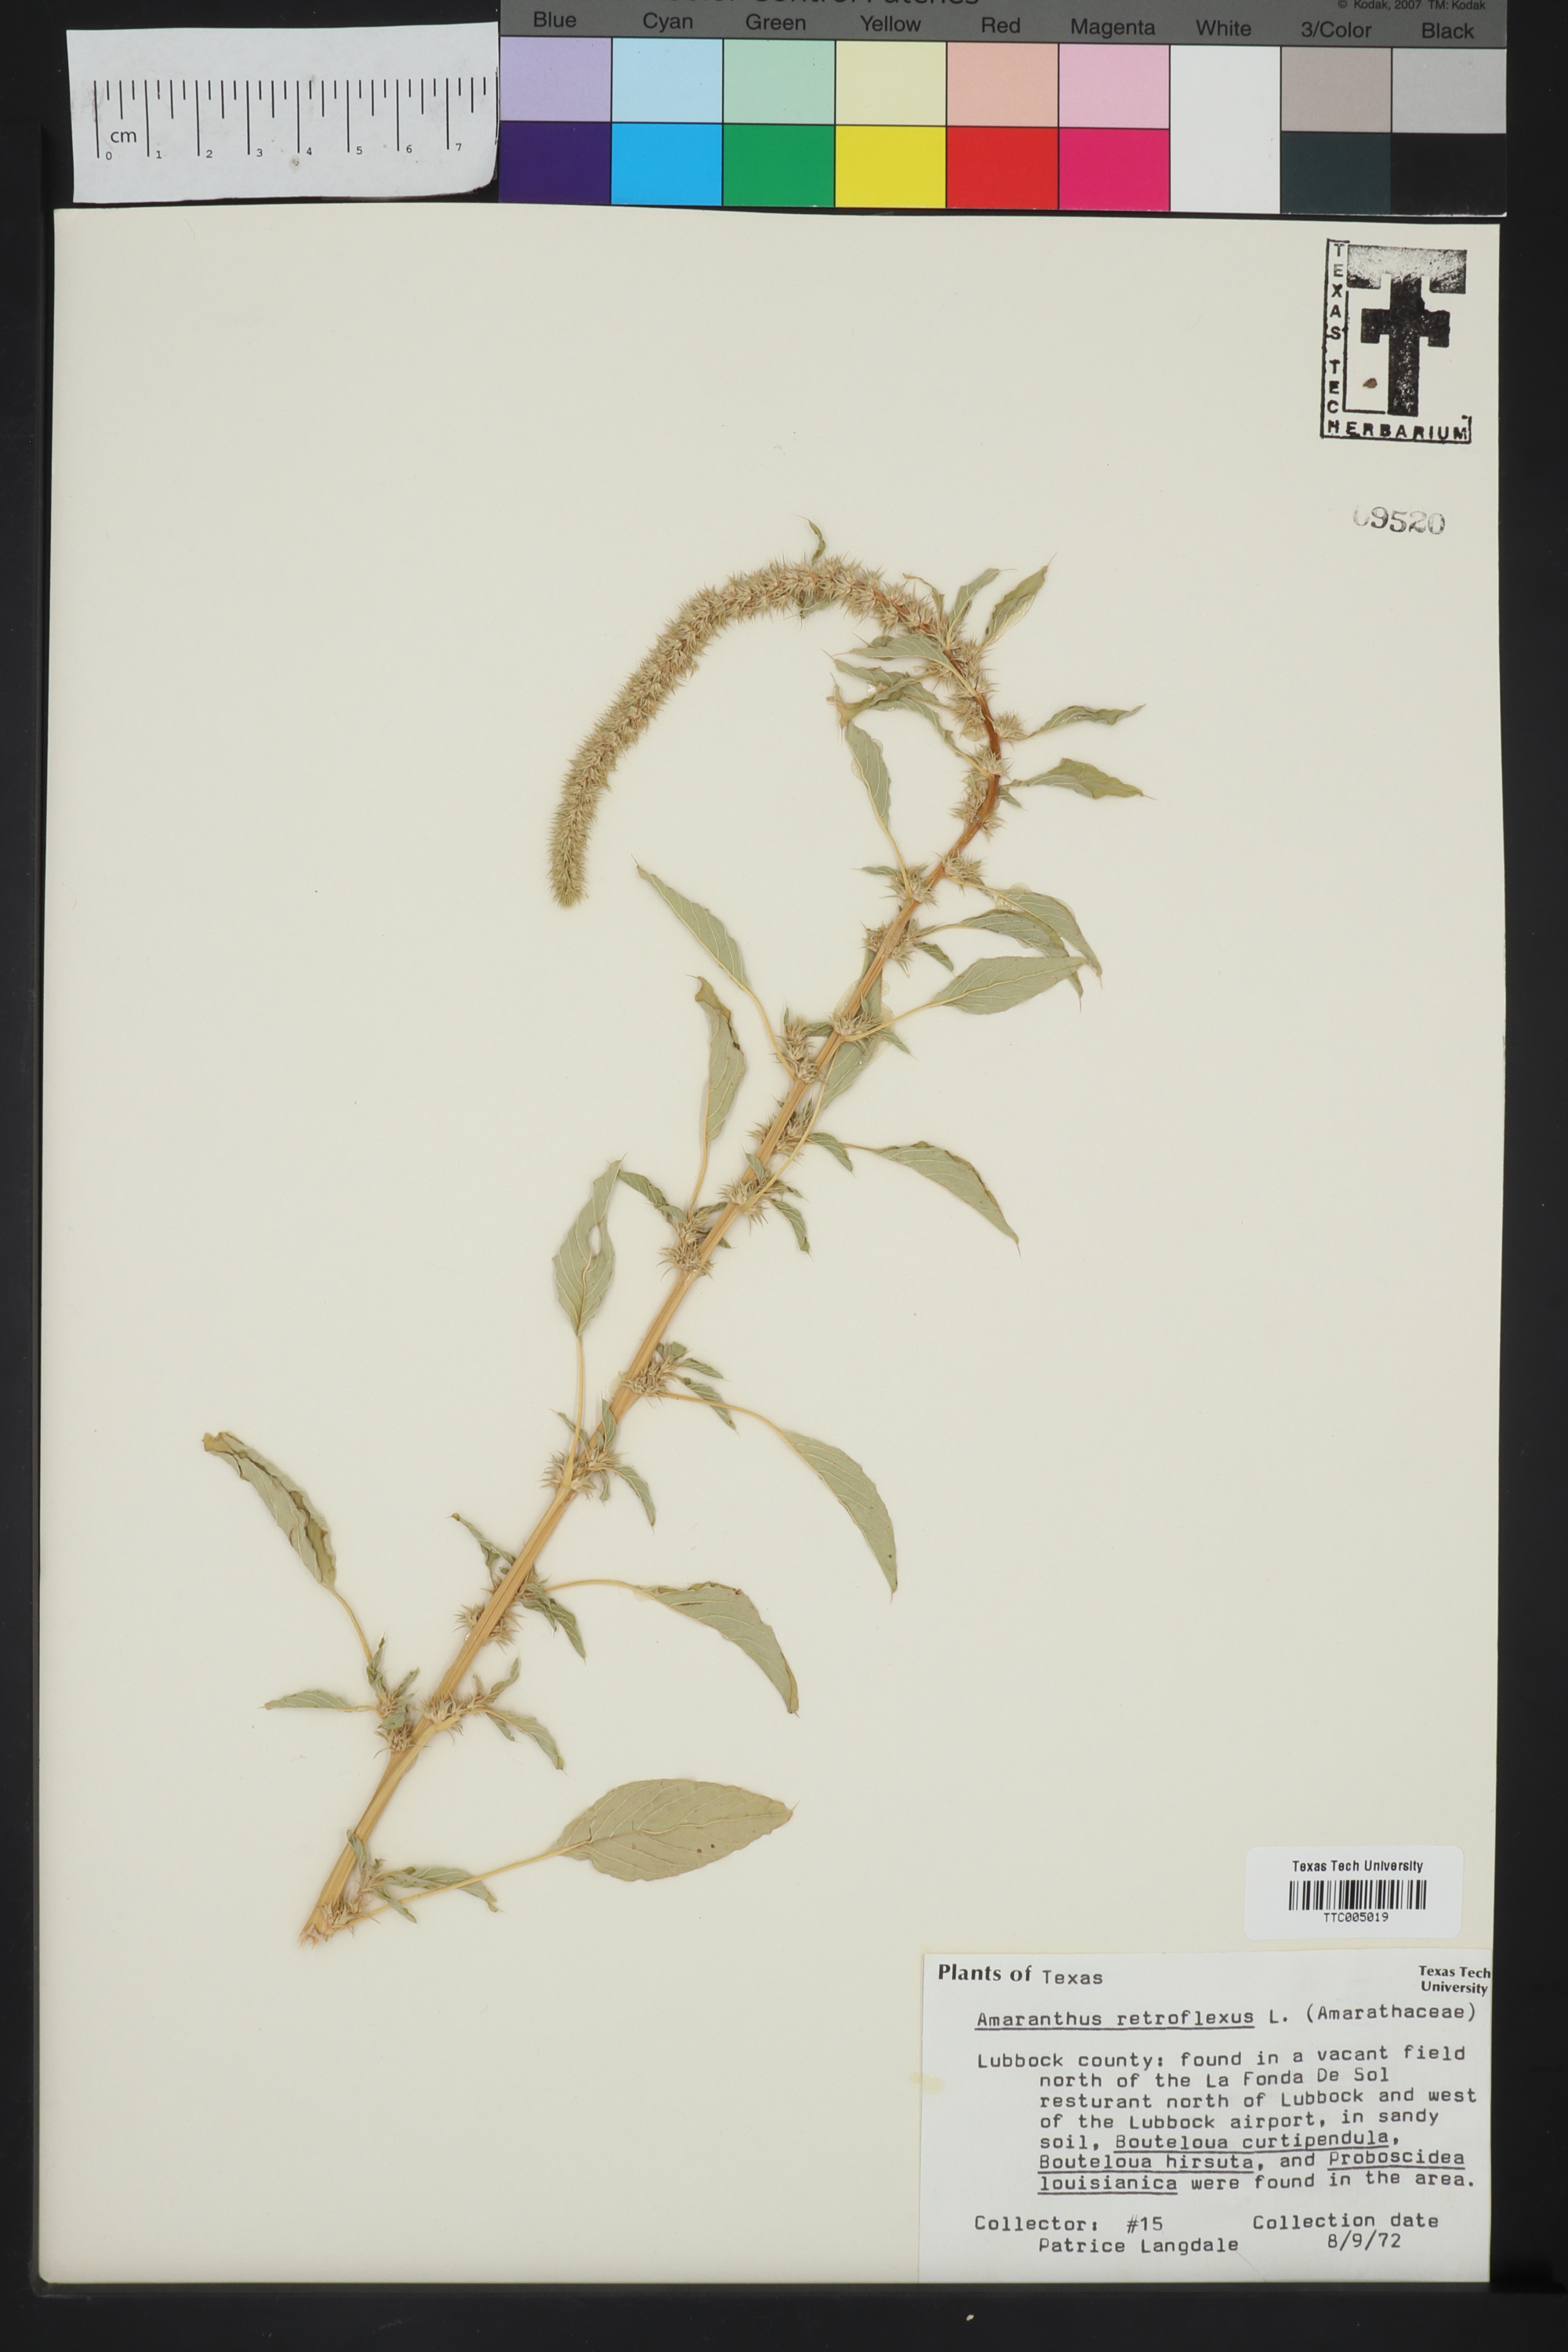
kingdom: Plantae
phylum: Tracheophyta
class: Magnoliopsida
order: Caryophyllales
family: Amaranthaceae
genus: Amaranthus
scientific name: Amaranthus retroflexus
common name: Redroot amaranth
